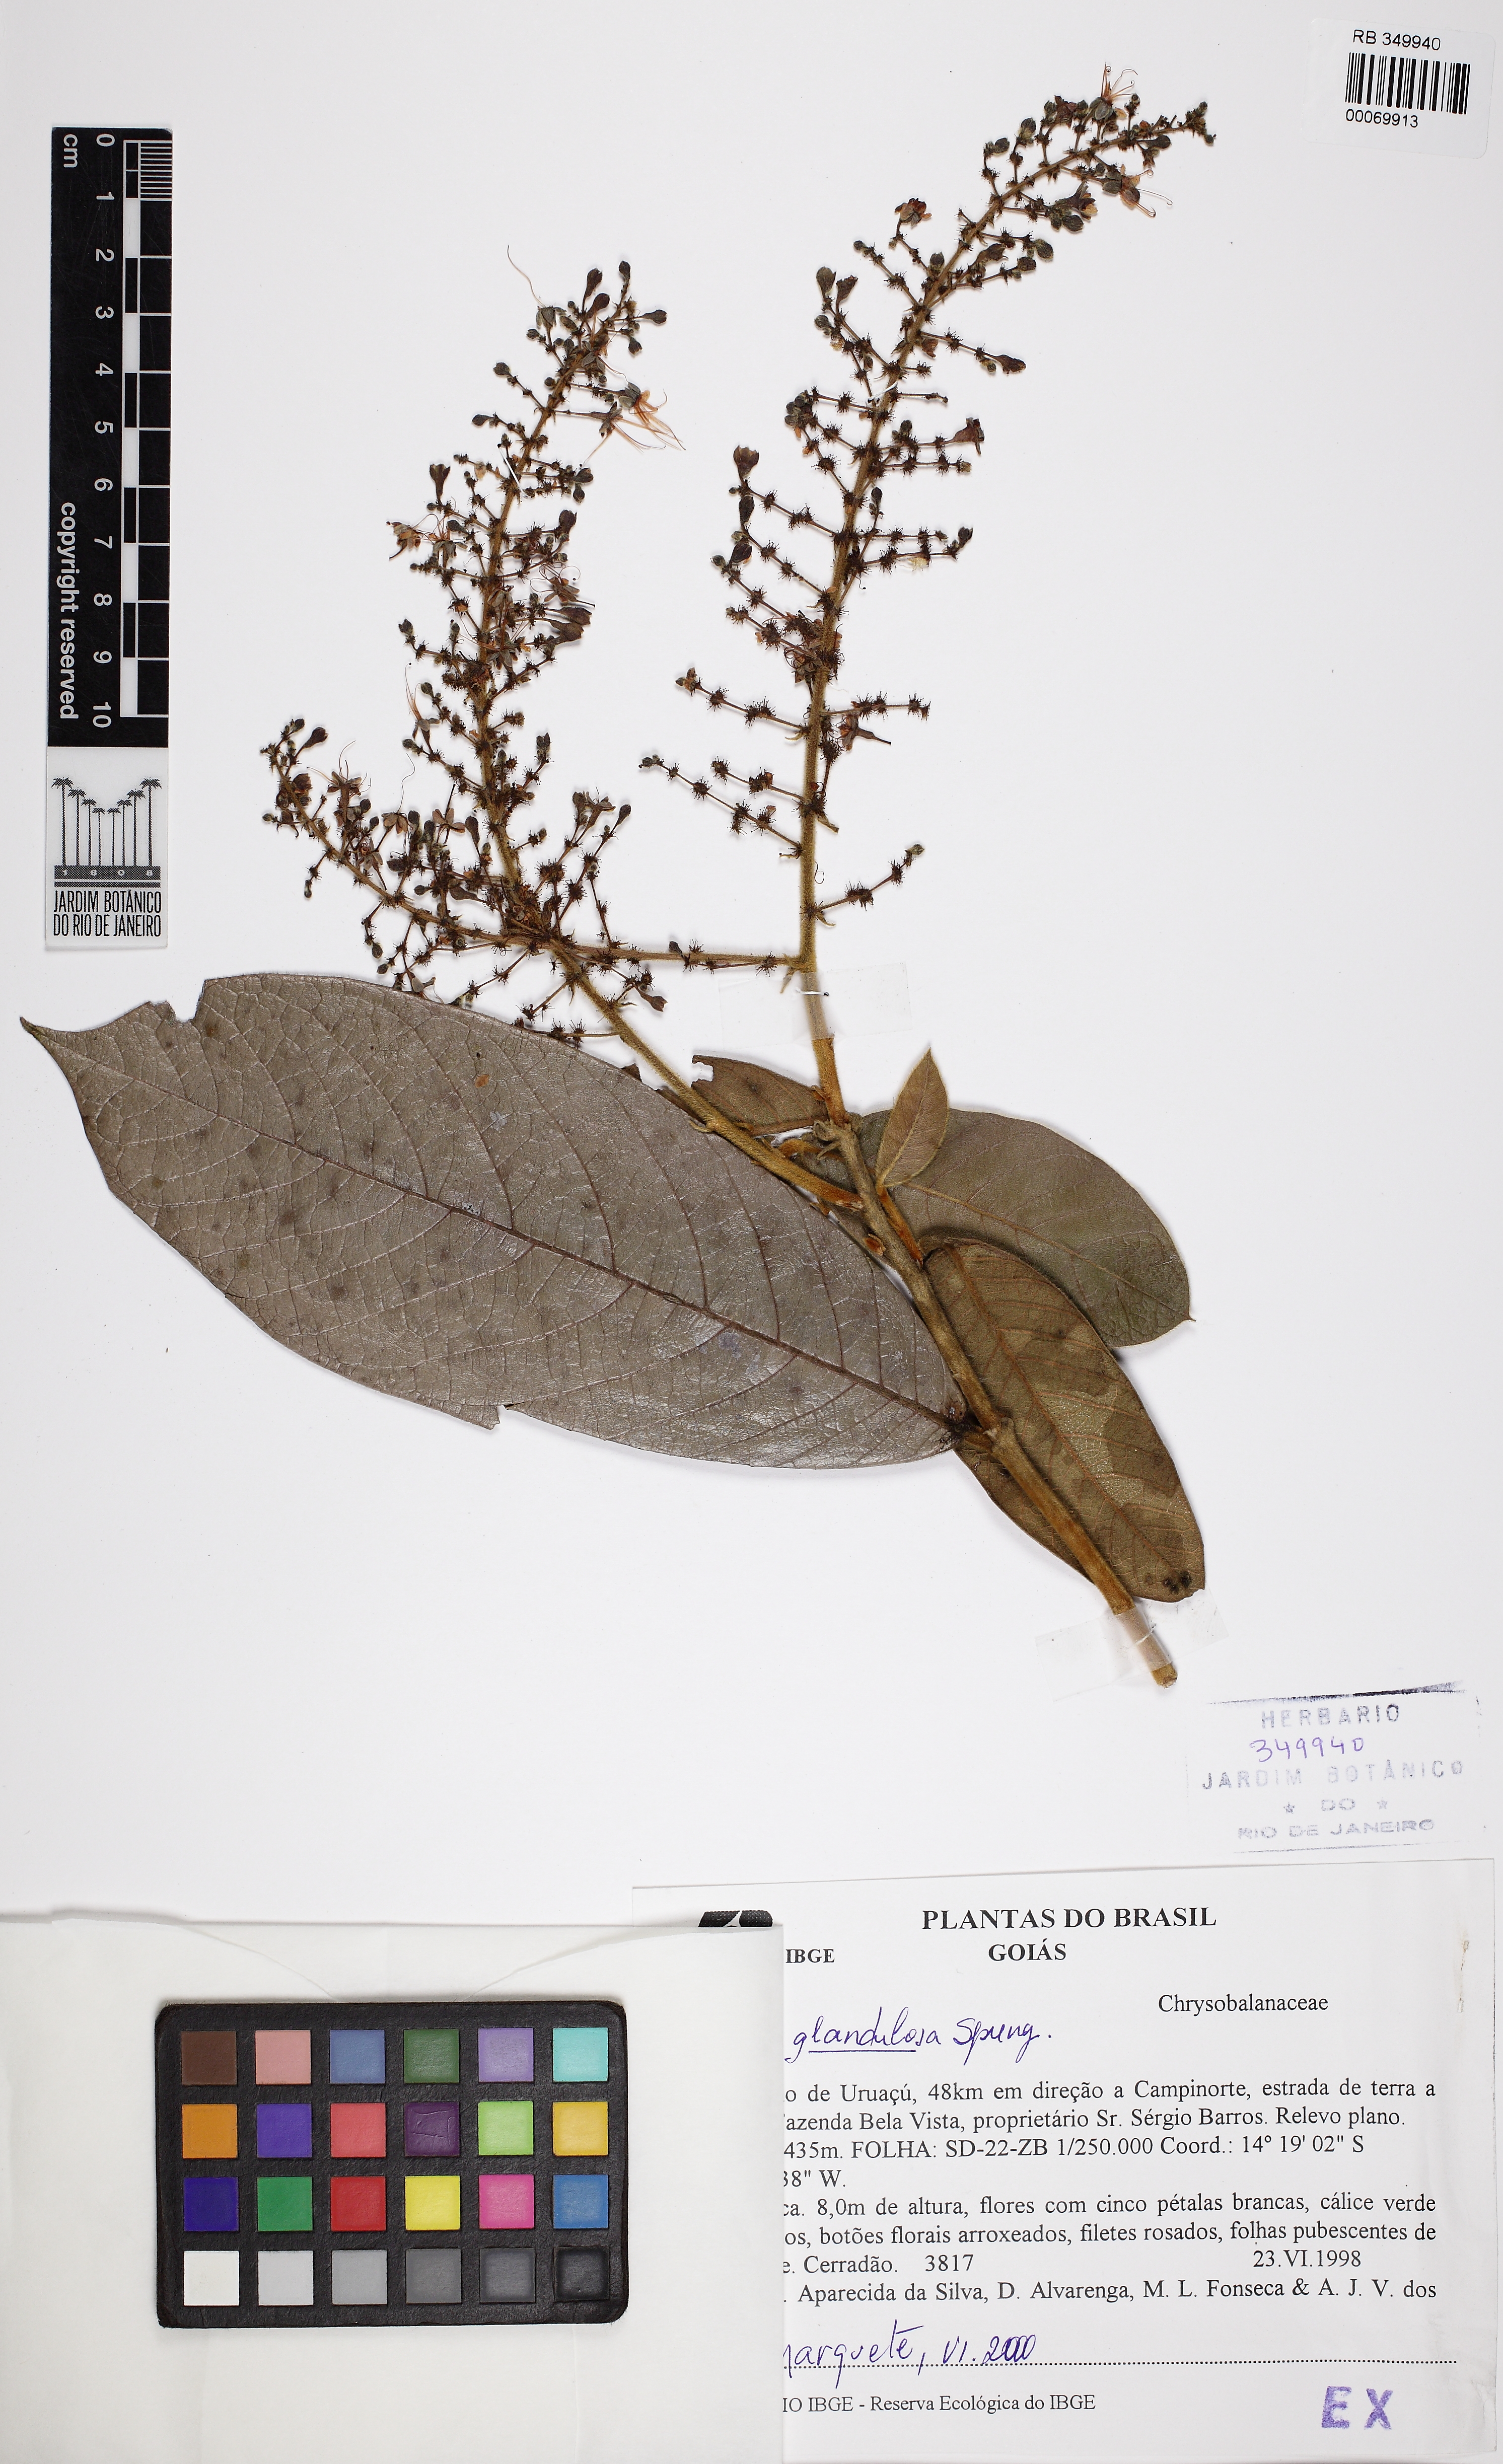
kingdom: Plantae
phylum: Tracheophyta
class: Magnoliopsida
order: Malpighiales
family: Chrysobalanaceae
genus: Hirtella
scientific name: Hirtella glandulosa
